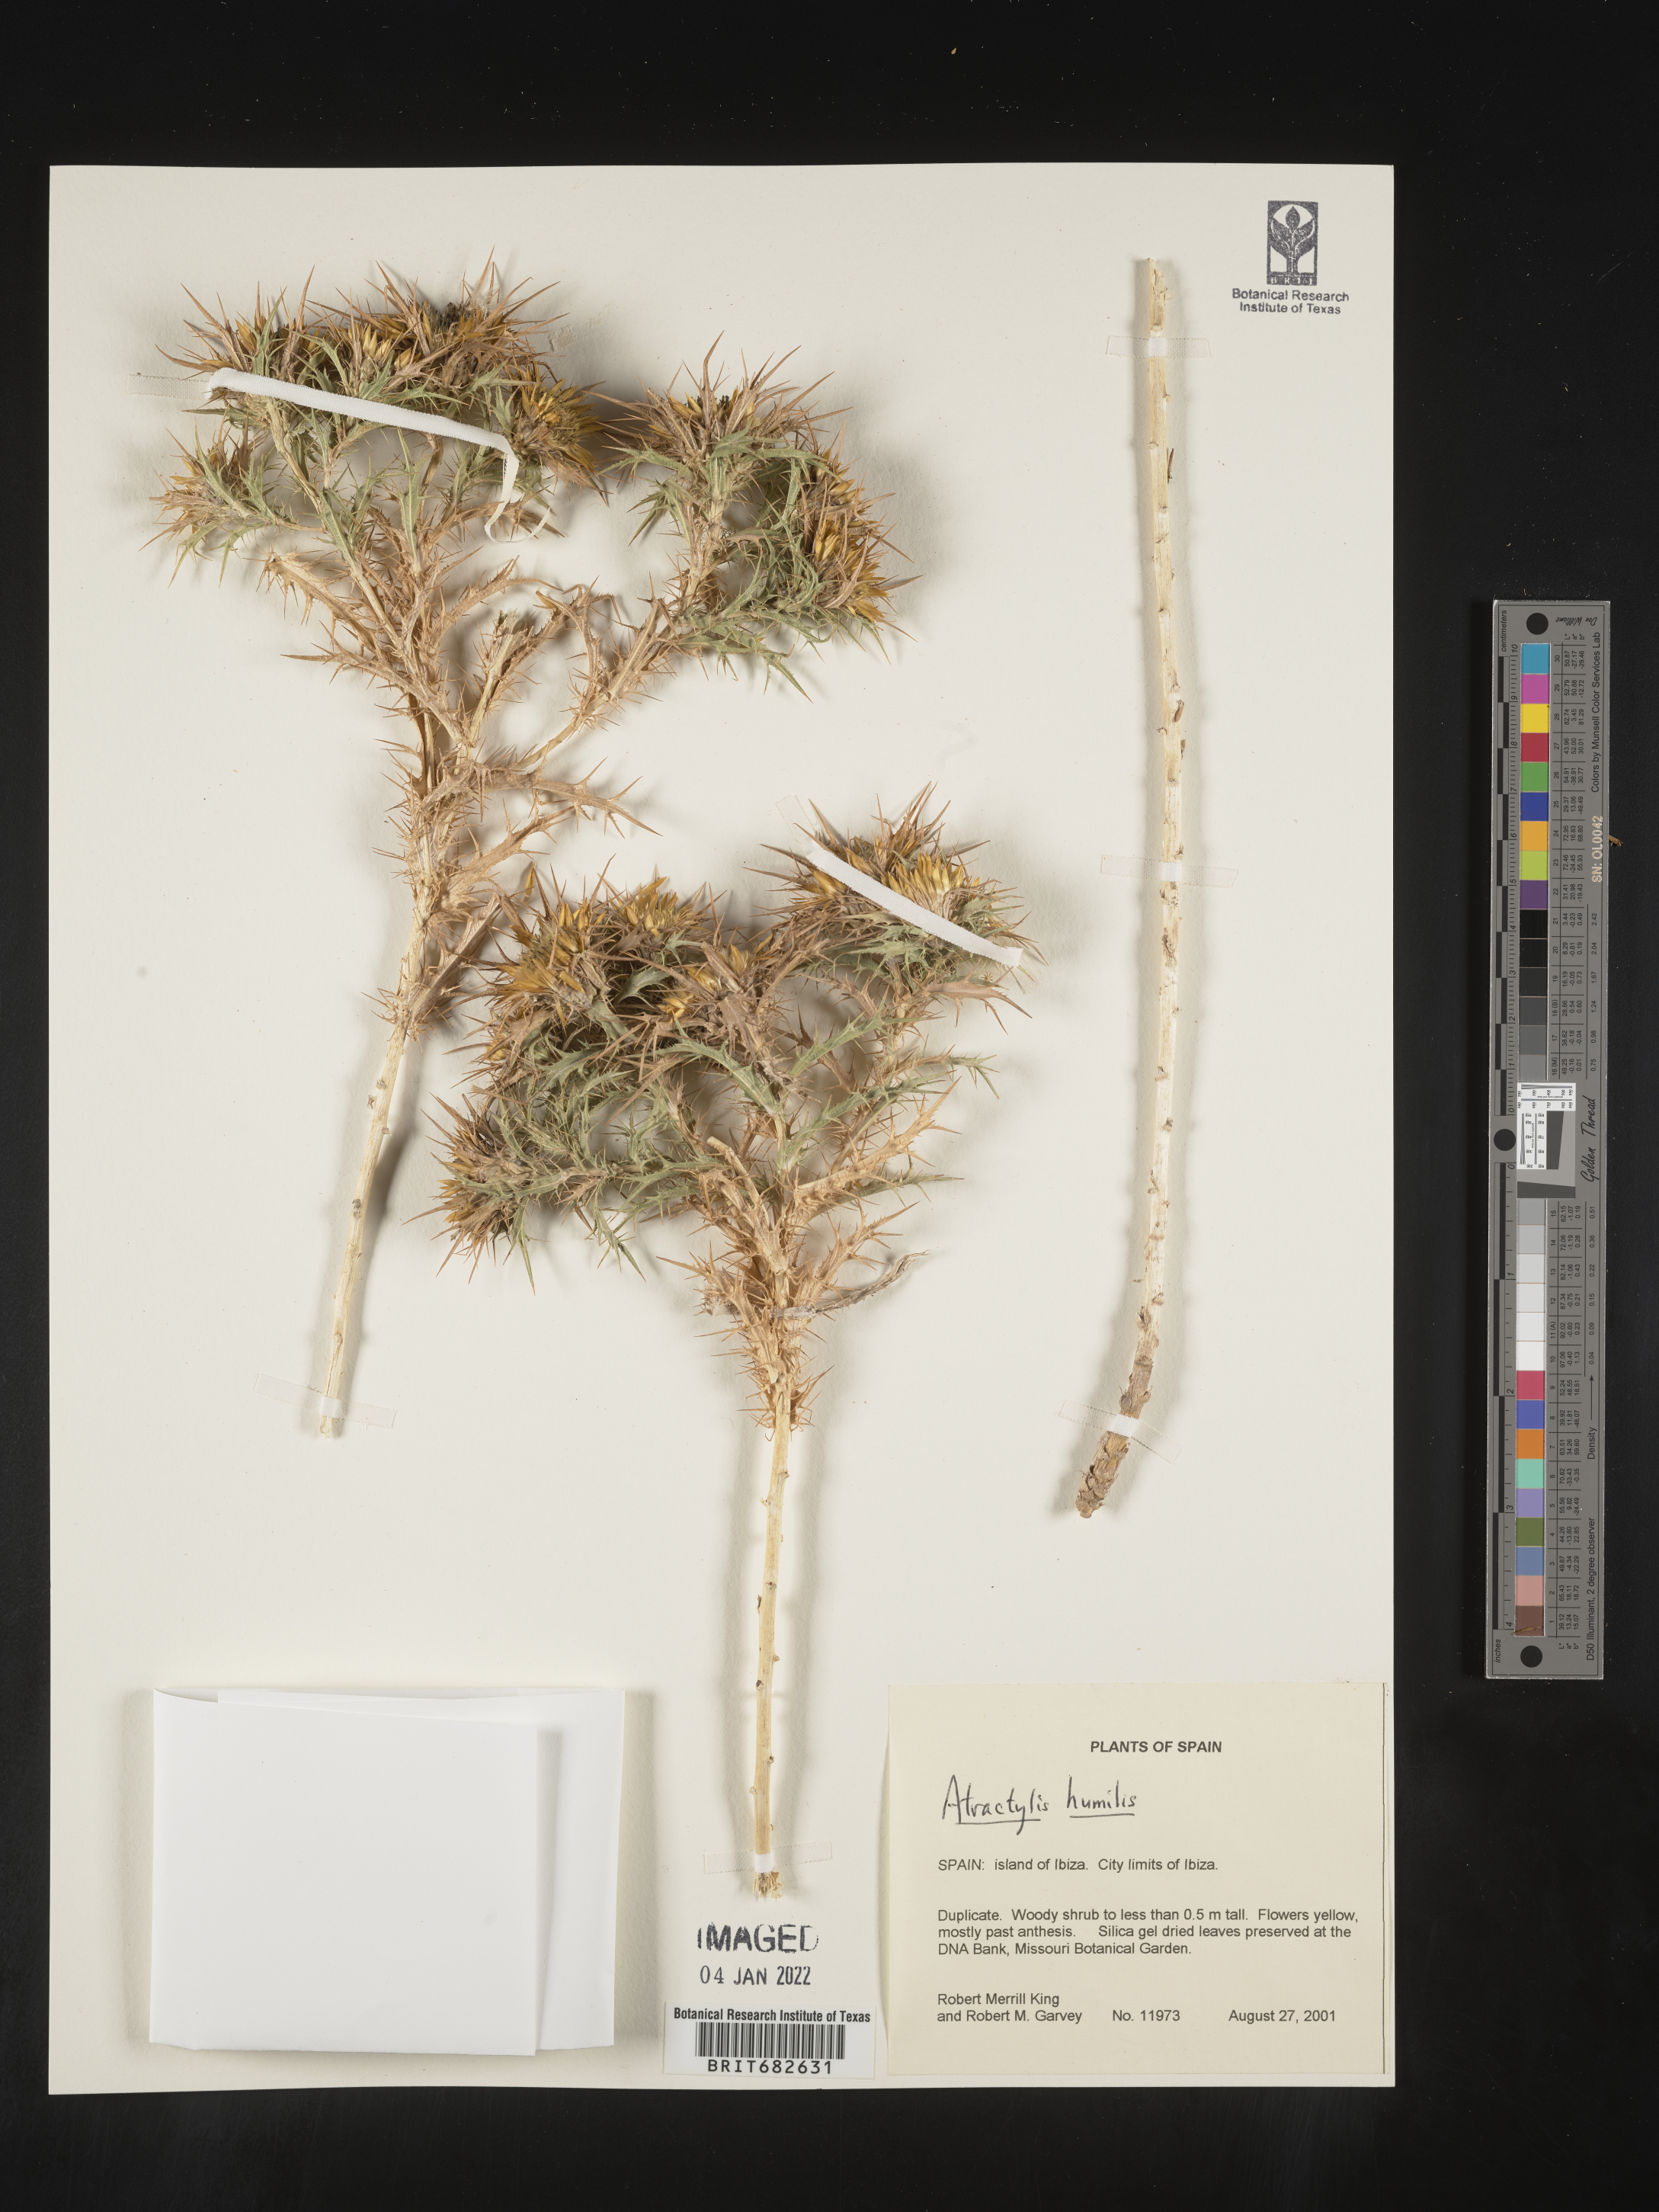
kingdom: Plantae
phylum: Tracheophyta
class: Magnoliopsida
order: Asterales
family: Asteraceae
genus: Atractylis
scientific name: Atractylis
